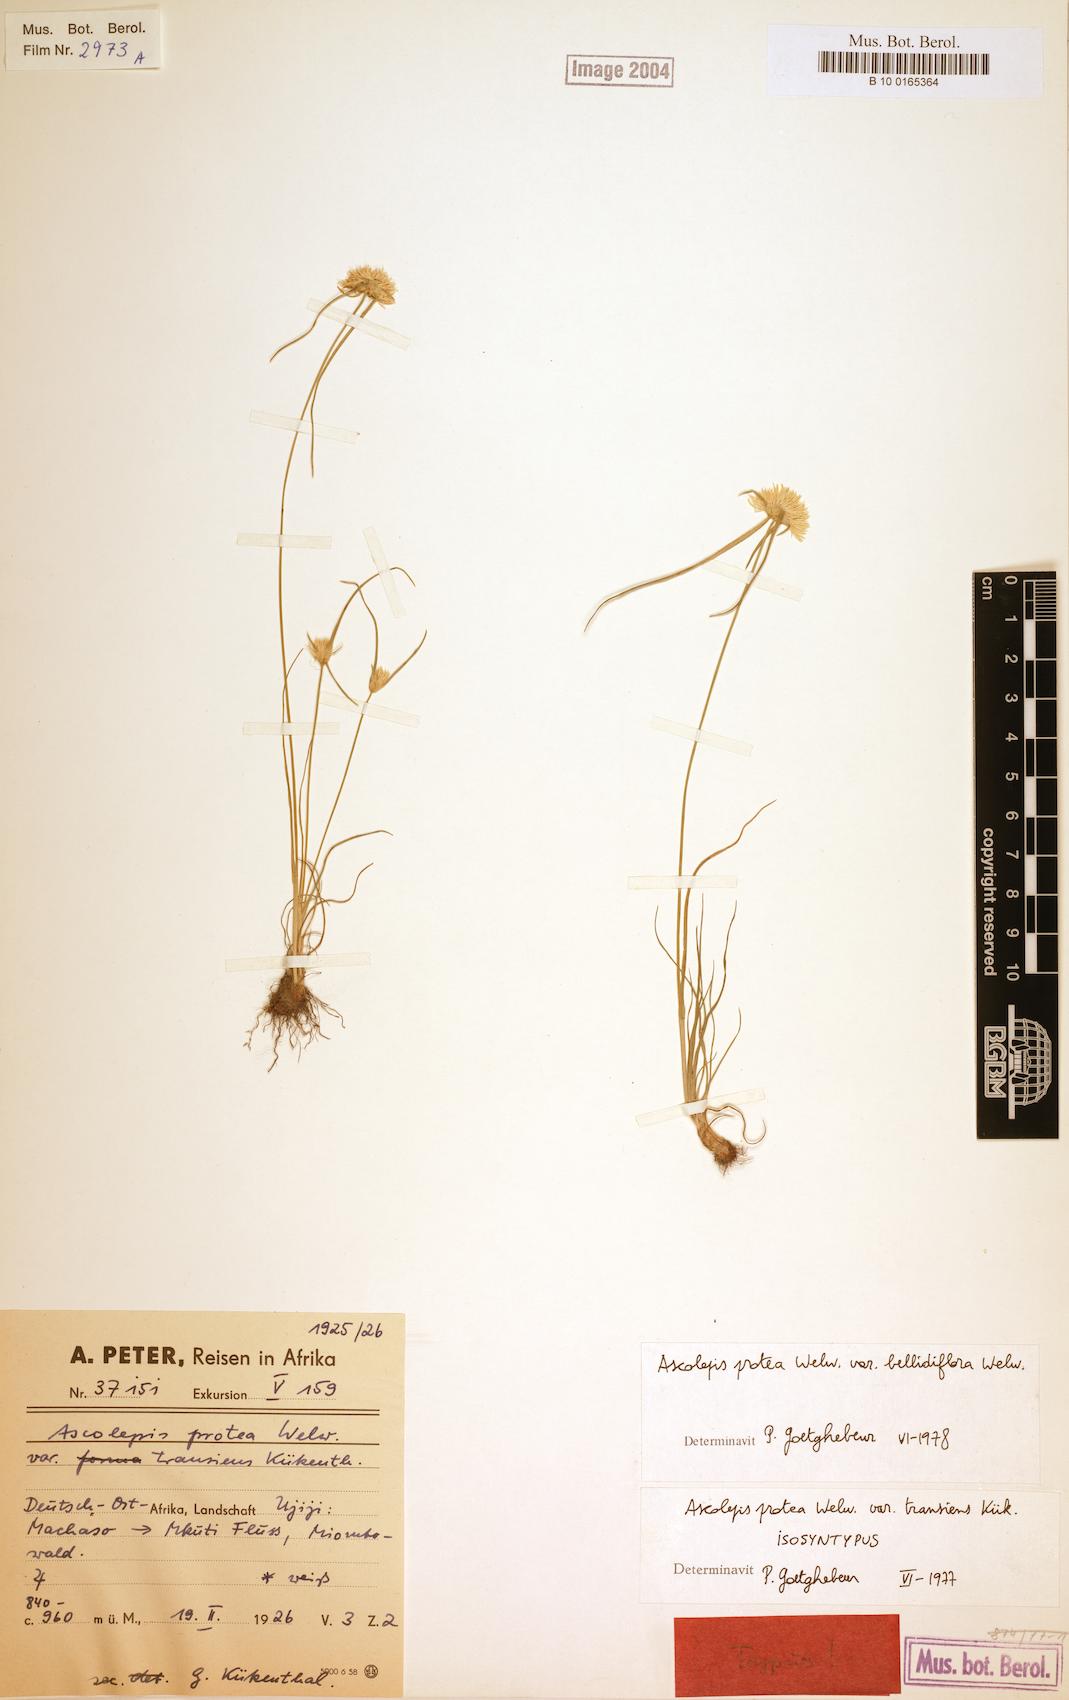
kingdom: Plantae
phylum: Tracheophyta
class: Liliopsida
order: Poales
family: Cyperaceae
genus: Cyperus
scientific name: Cyperus proteus
